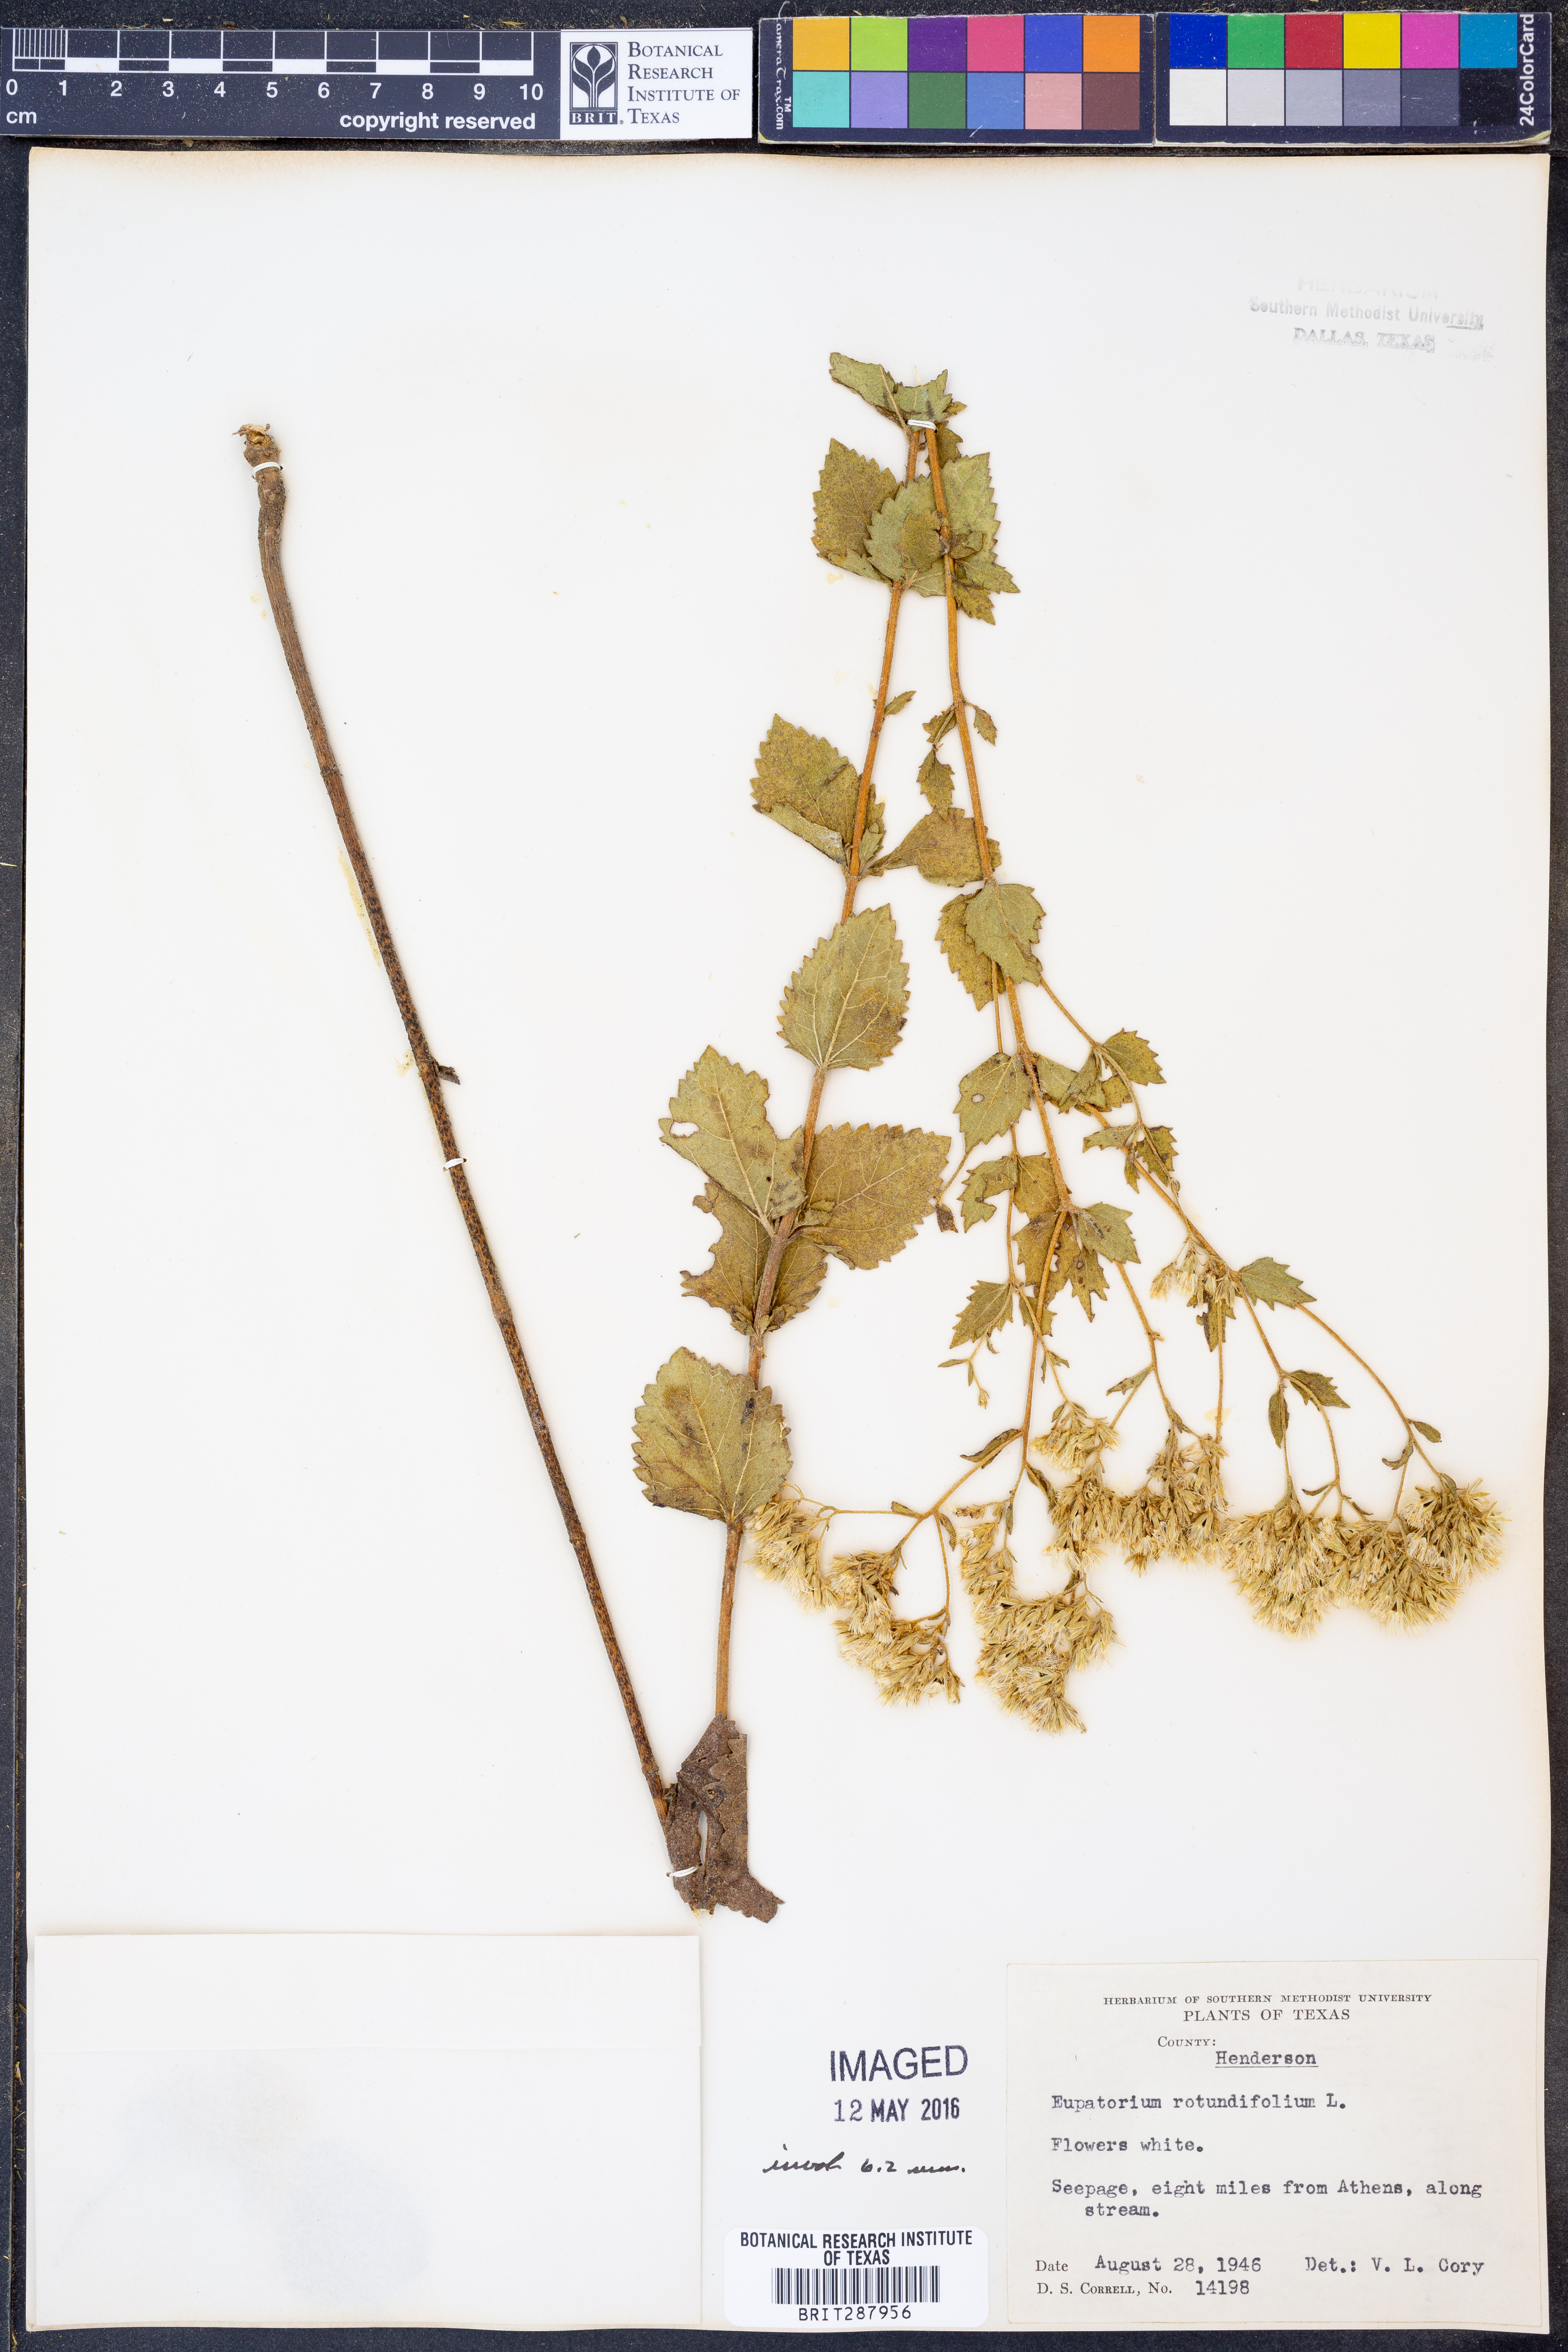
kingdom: Plantae
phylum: Tracheophyta
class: Magnoliopsida
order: Asterales
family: Asteraceae
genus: Eupatorium
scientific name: Eupatorium rotundifolium
